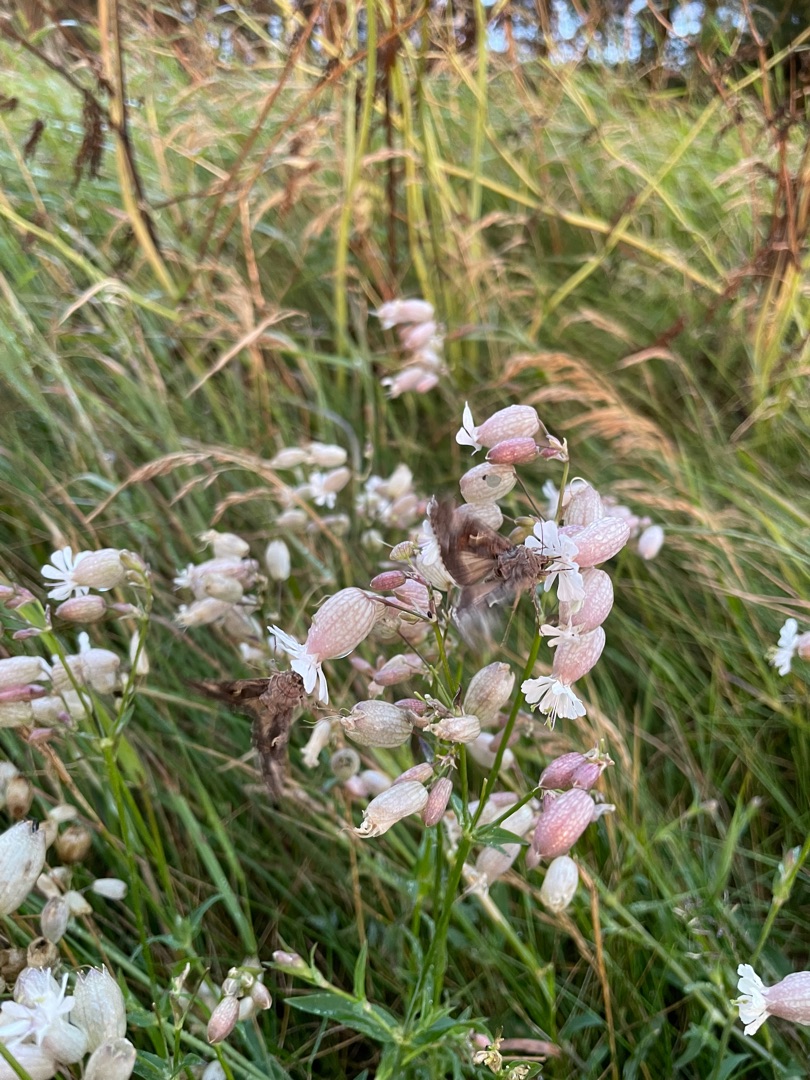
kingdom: Plantae
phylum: Tracheophyta
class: Magnoliopsida
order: Caryophyllales
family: Caryophyllaceae
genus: Silene
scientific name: Silene vulgaris
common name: Blæresmælde
